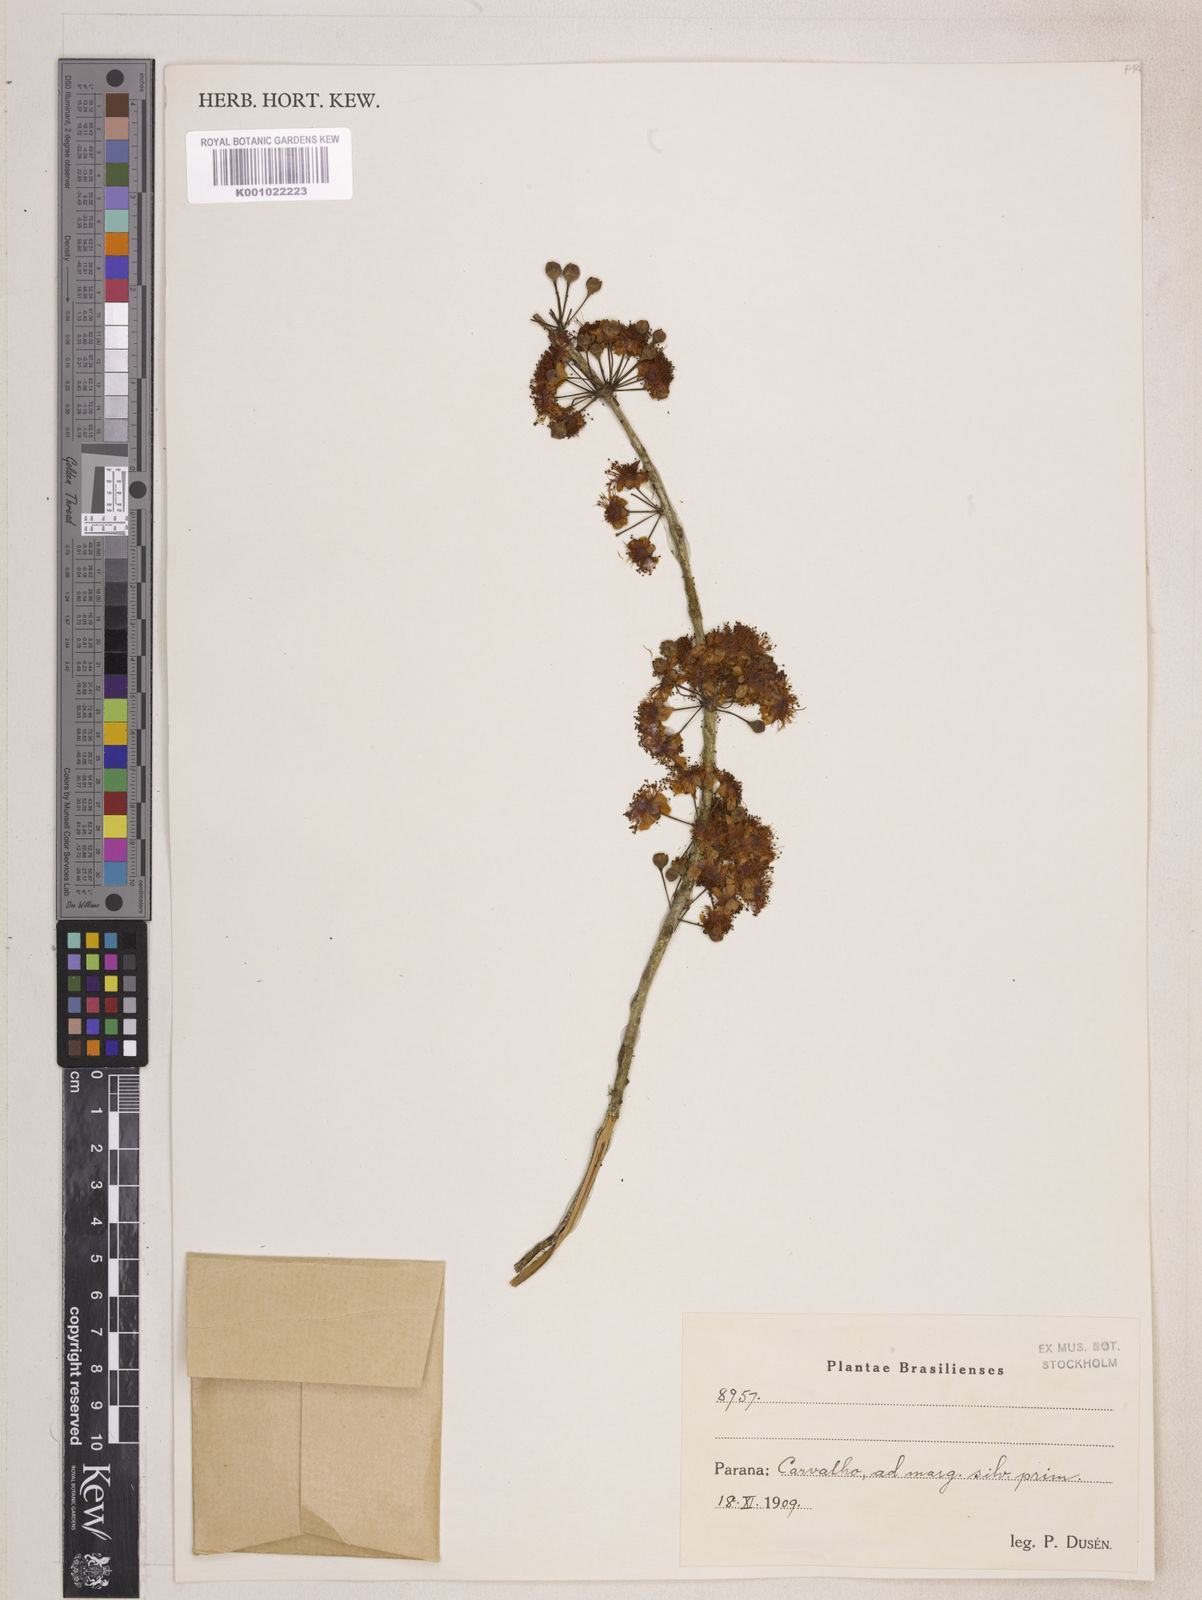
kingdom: Plantae
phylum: Tracheophyta
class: Magnoliopsida
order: Myrtales
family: Myrtaceae
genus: Eugenia
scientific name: Eugenia brevistyla
